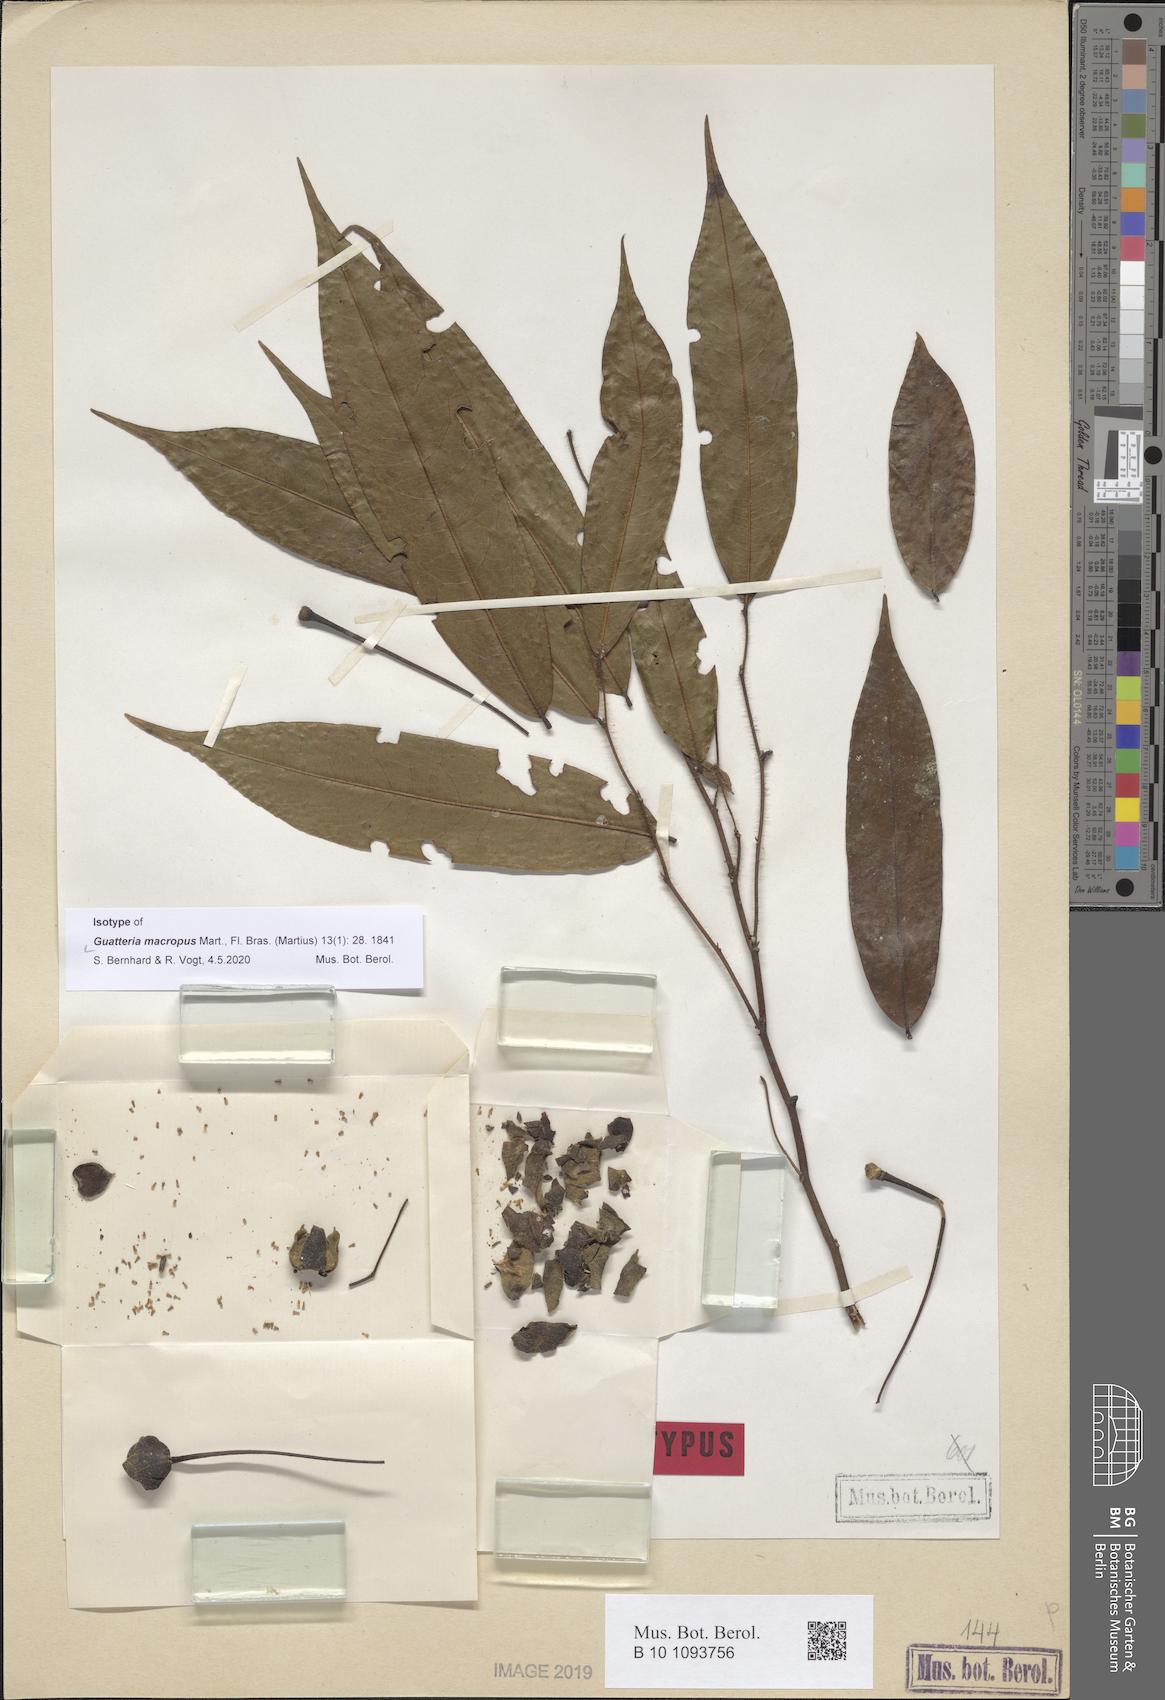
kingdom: Plantae
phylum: Tracheophyta
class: Magnoliopsida
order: Magnoliales
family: Annonaceae
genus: Guatteria
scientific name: Guatteria macropus
